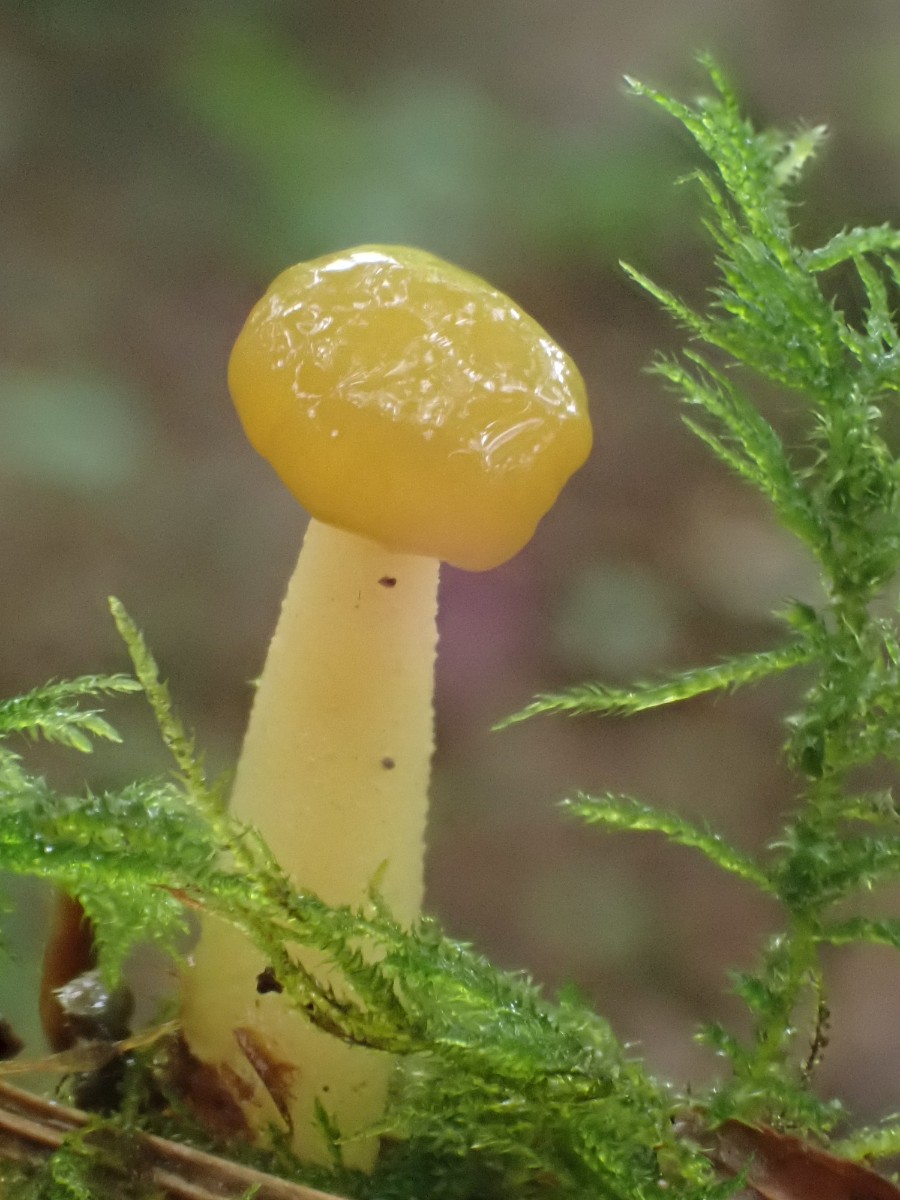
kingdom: Fungi
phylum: Ascomycota
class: Leotiomycetes
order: Leotiales
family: Leotiaceae
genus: Leotia
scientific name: Leotia lubrica
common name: ravsvamp
